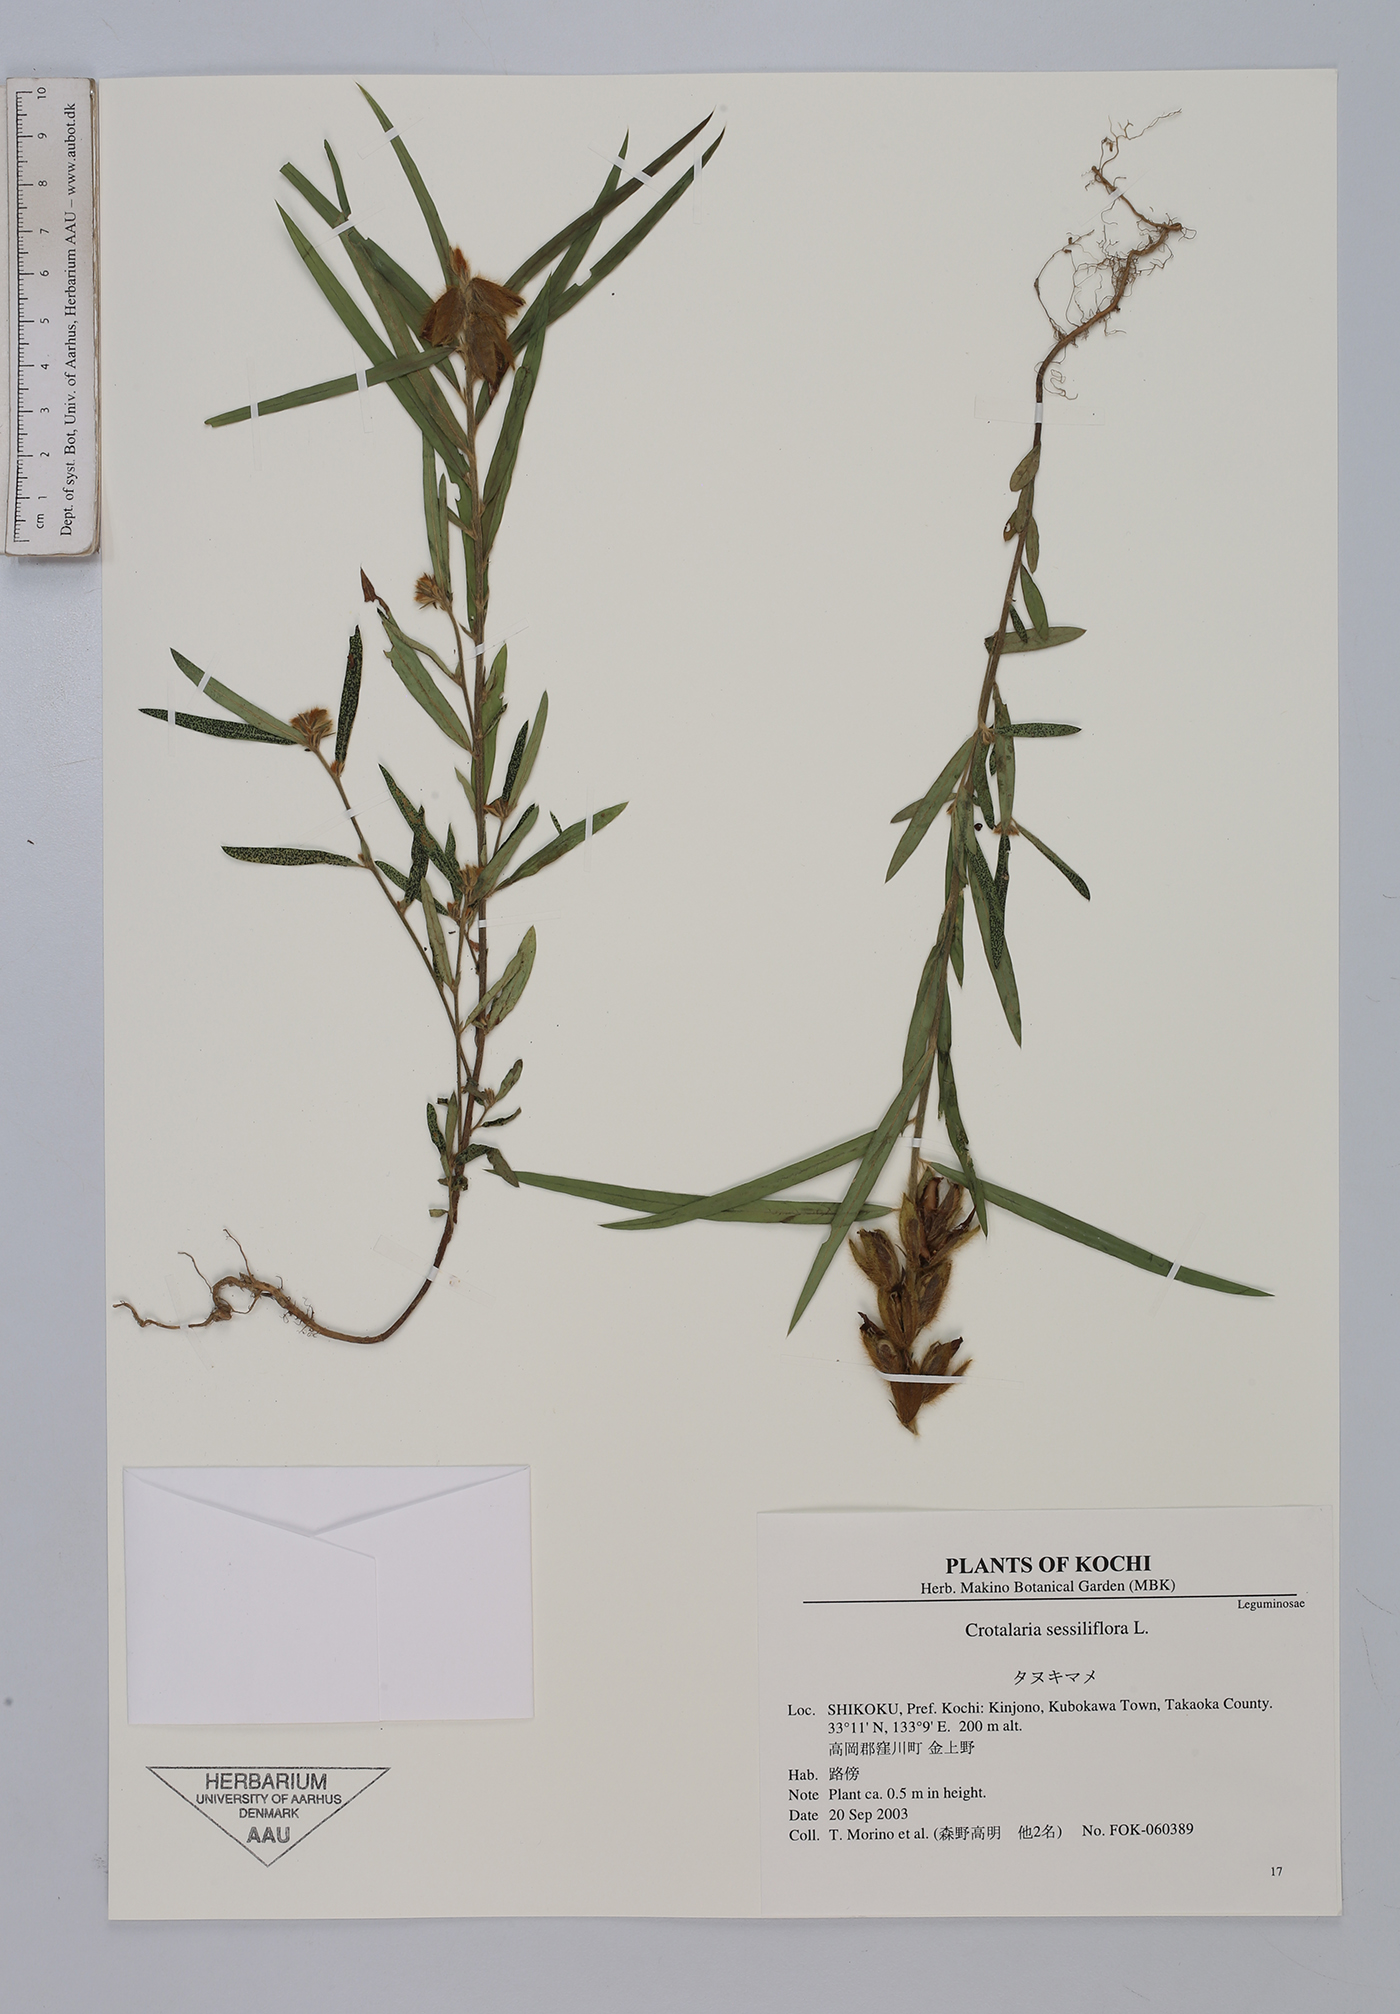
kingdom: Plantae
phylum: Tracheophyta
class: Magnoliopsida
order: Fabales
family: Fabaceae
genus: Crotalaria
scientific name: Crotalaria sessiliflora
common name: Rattlebox
